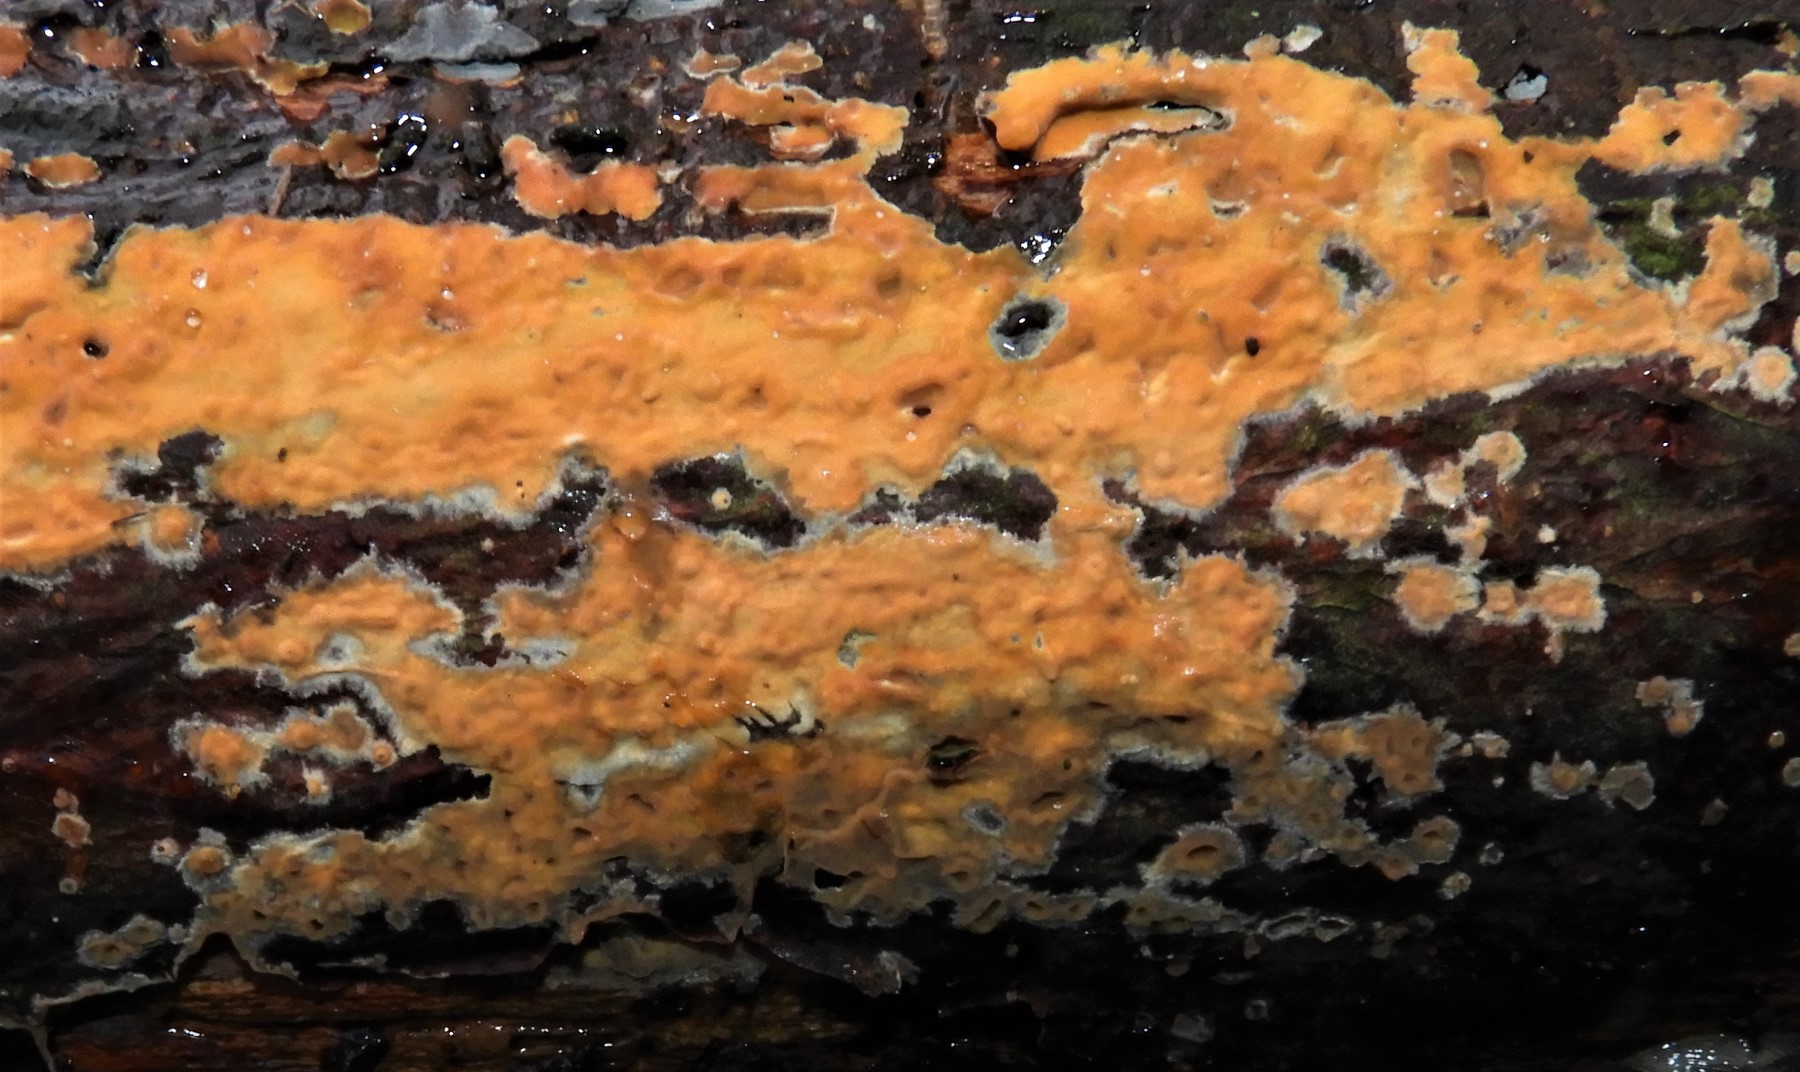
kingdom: Fungi
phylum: Basidiomycota
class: Agaricomycetes
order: Russulales
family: Peniophoraceae
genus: Peniophora
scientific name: Peniophora incarnata
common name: laksefarvet voksskind
